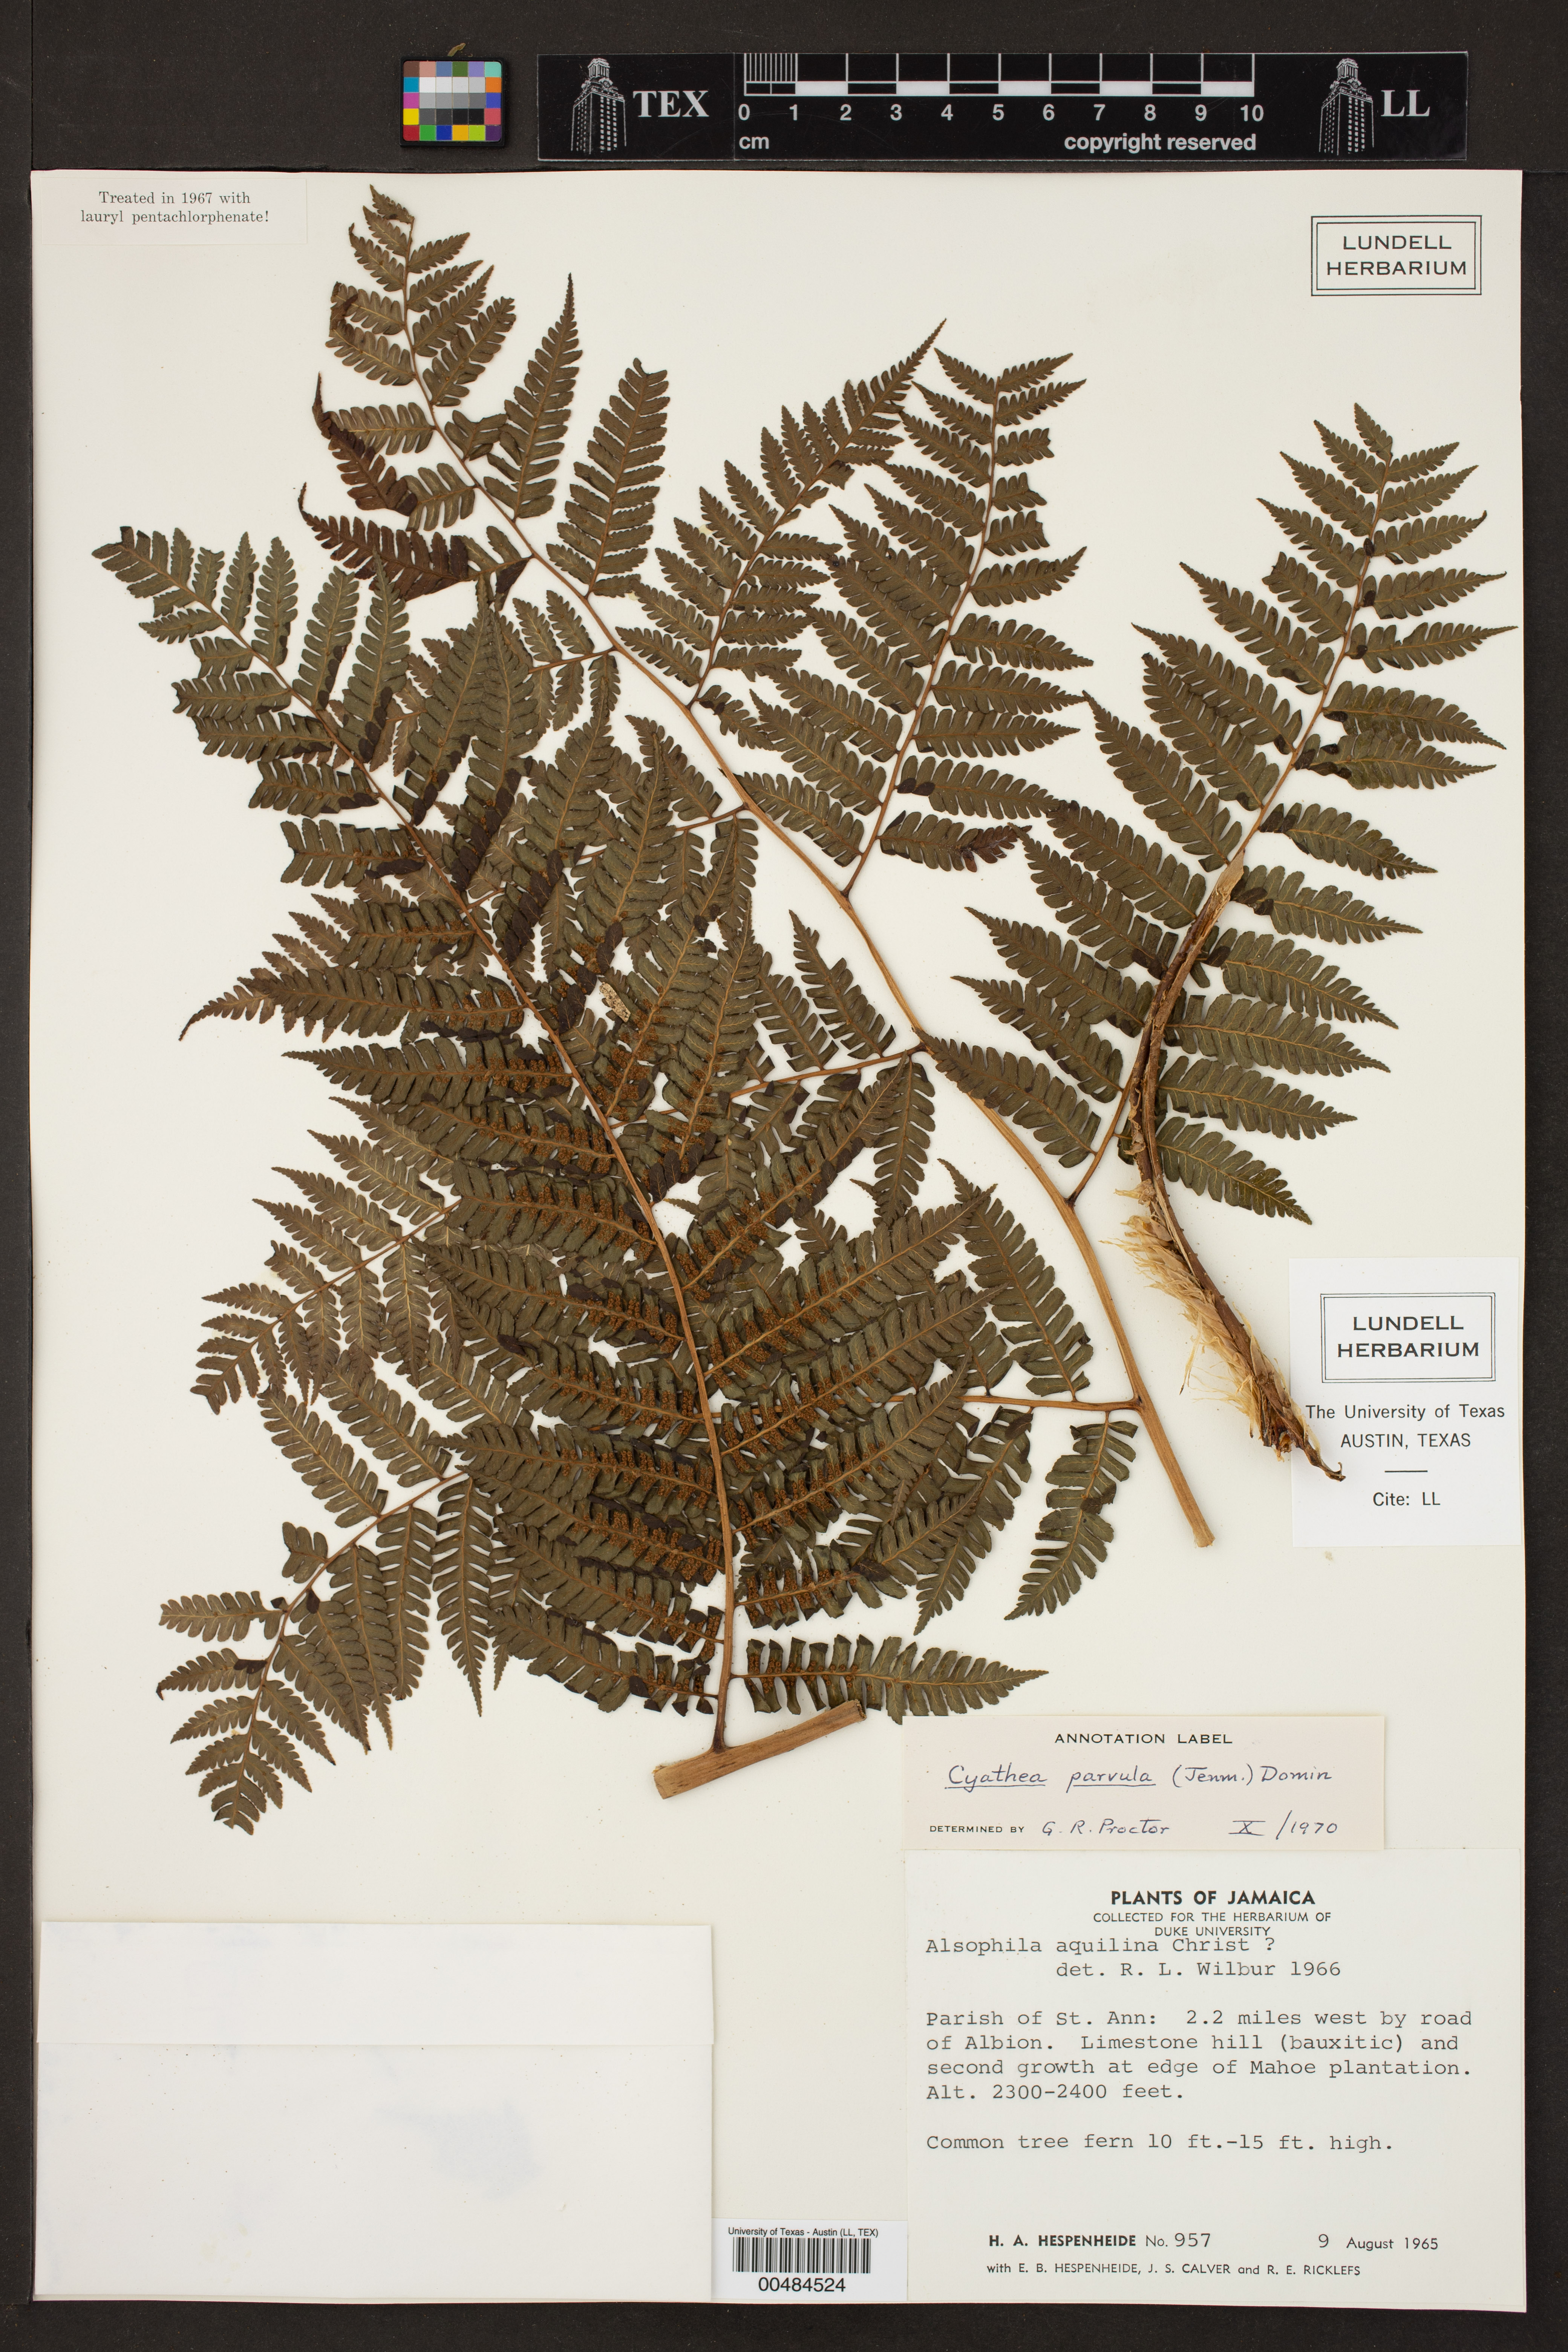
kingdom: Plantae
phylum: Tracheophyta
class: Polypodiopsida
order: Cyatheales
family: Cyatheaceae
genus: Cyathea
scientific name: Cyathea parvula
